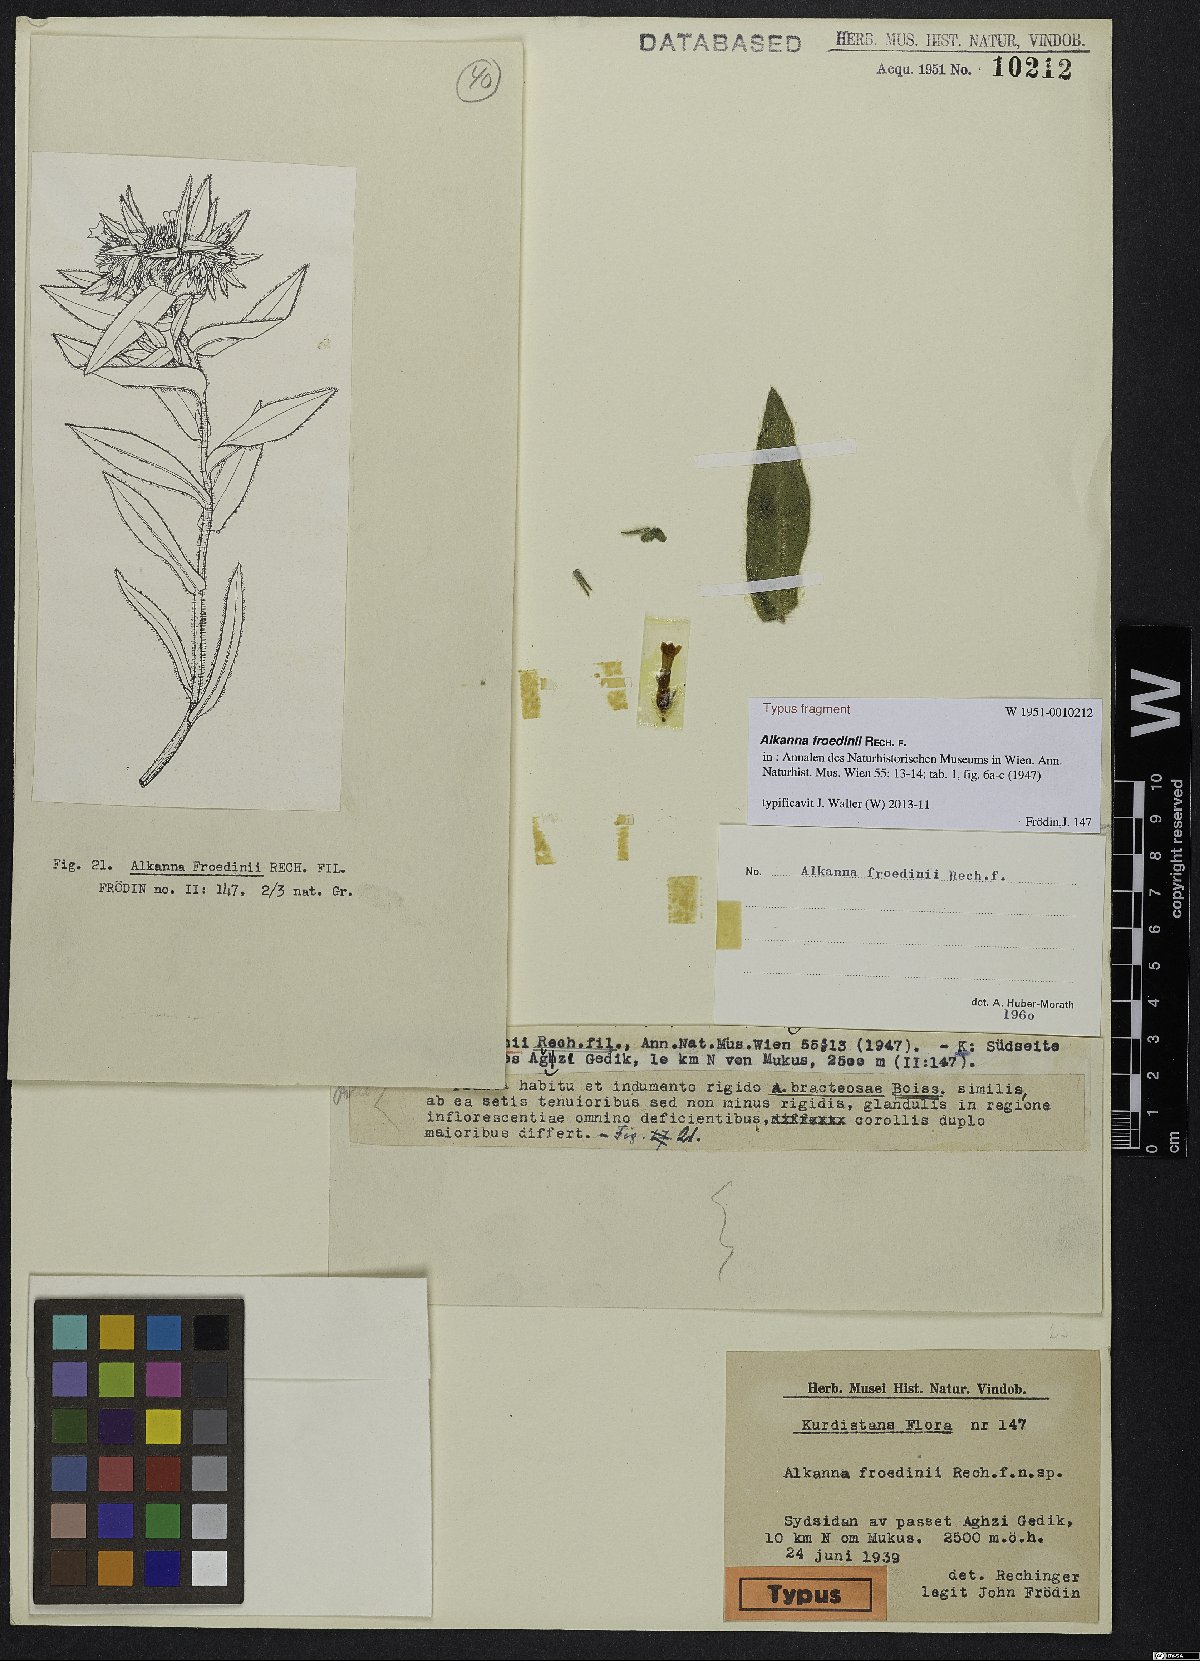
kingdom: Plantae
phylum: Tracheophyta
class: Magnoliopsida
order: Boraginales
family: Boraginaceae
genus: Alkanna
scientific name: Alkanna froedinii
